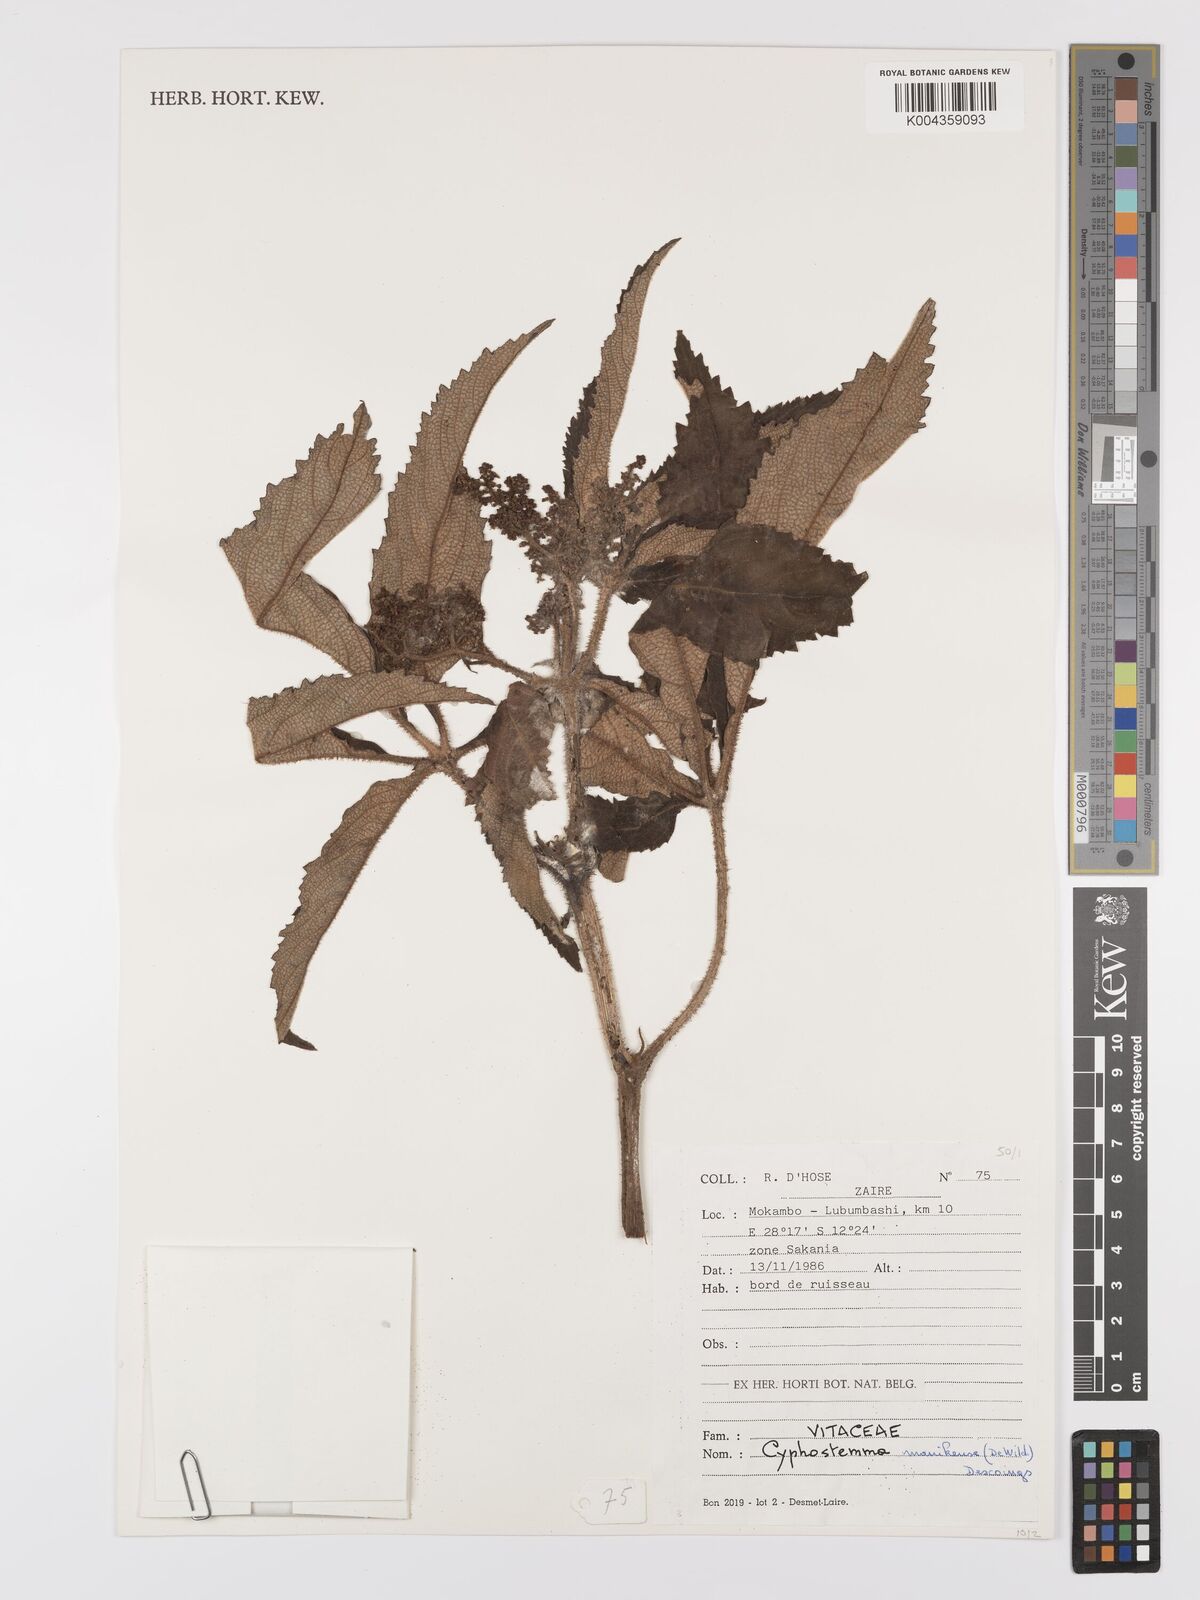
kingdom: Plantae
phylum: Tracheophyta
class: Magnoliopsida
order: Vitales
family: Vitaceae
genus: Cyphostemma
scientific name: Cyphostemma manikense
